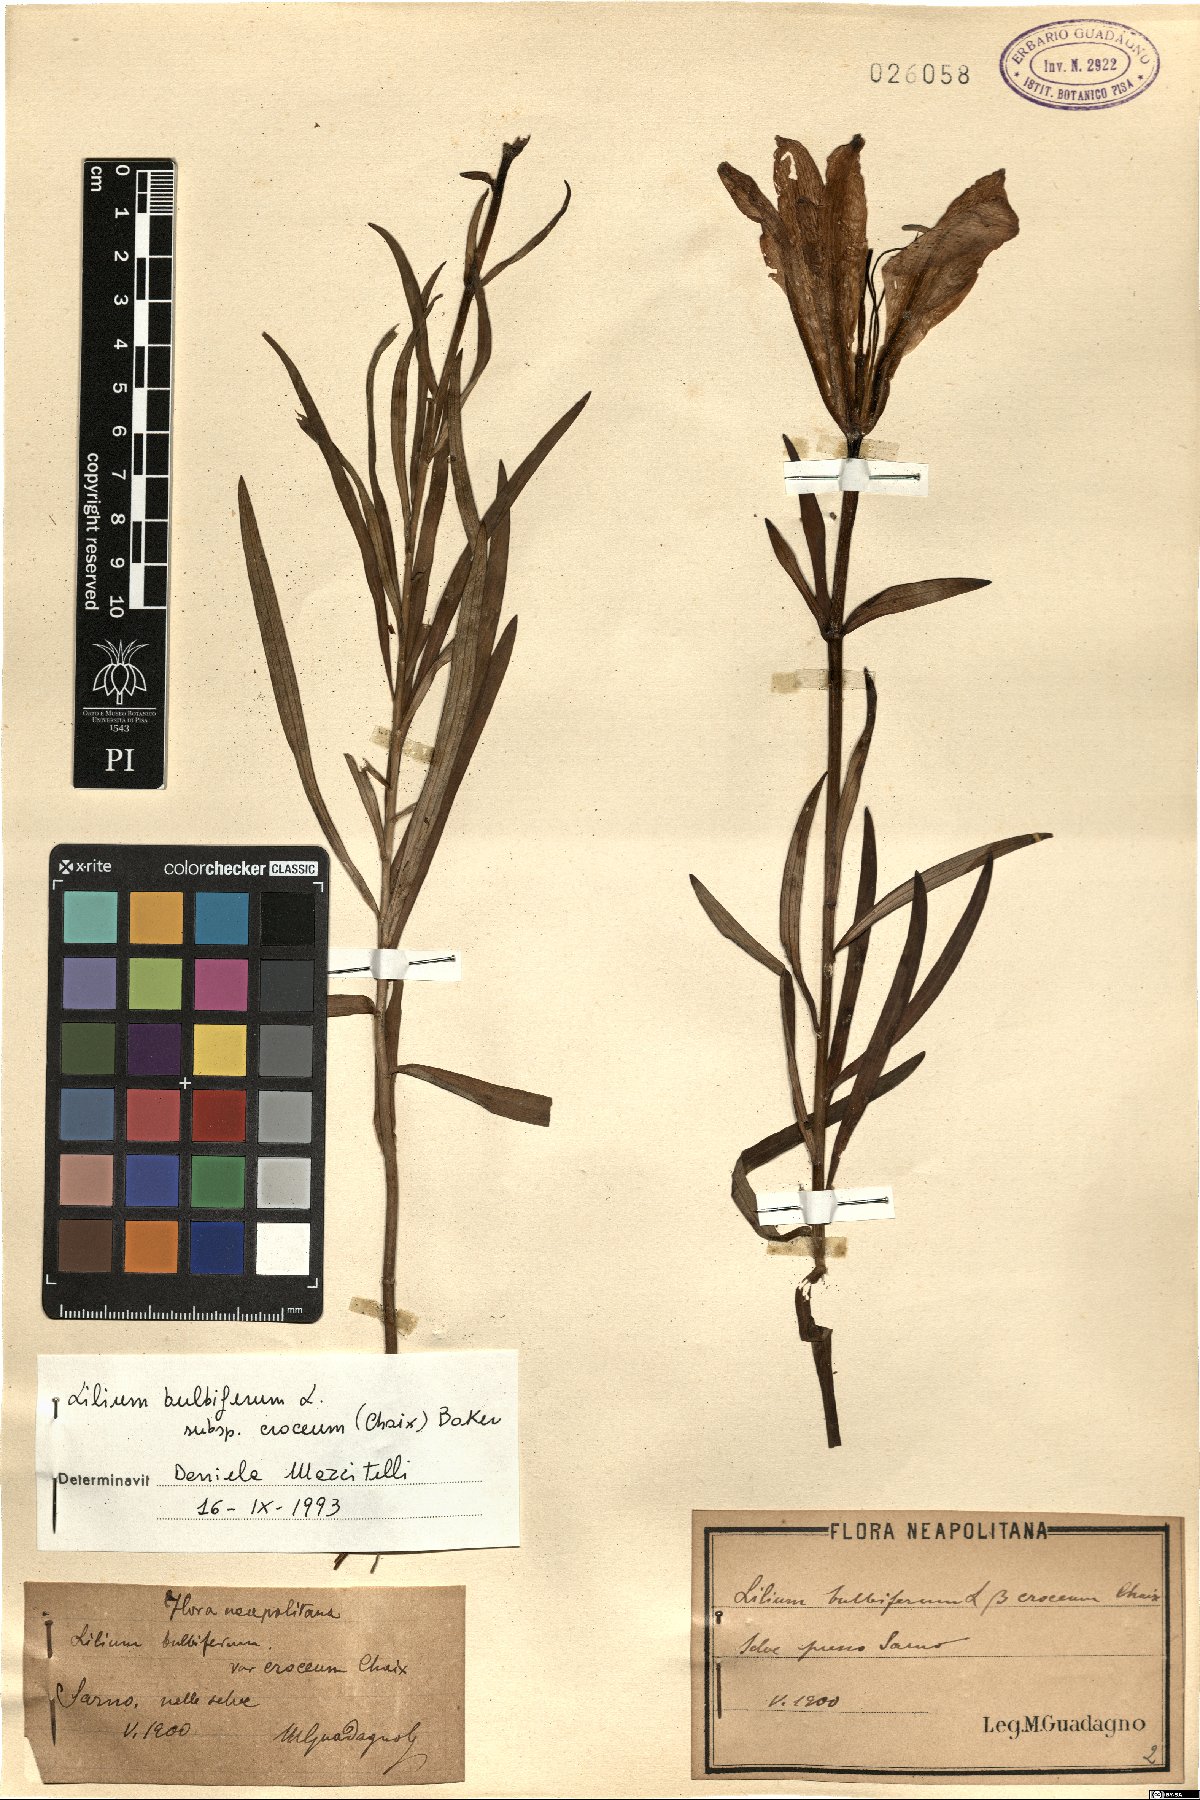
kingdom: Plantae
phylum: Tracheophyta
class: Liliopsida
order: Liliales
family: Liliaceae
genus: Lilium
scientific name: Lilium bulbiferum
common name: Orange lily
